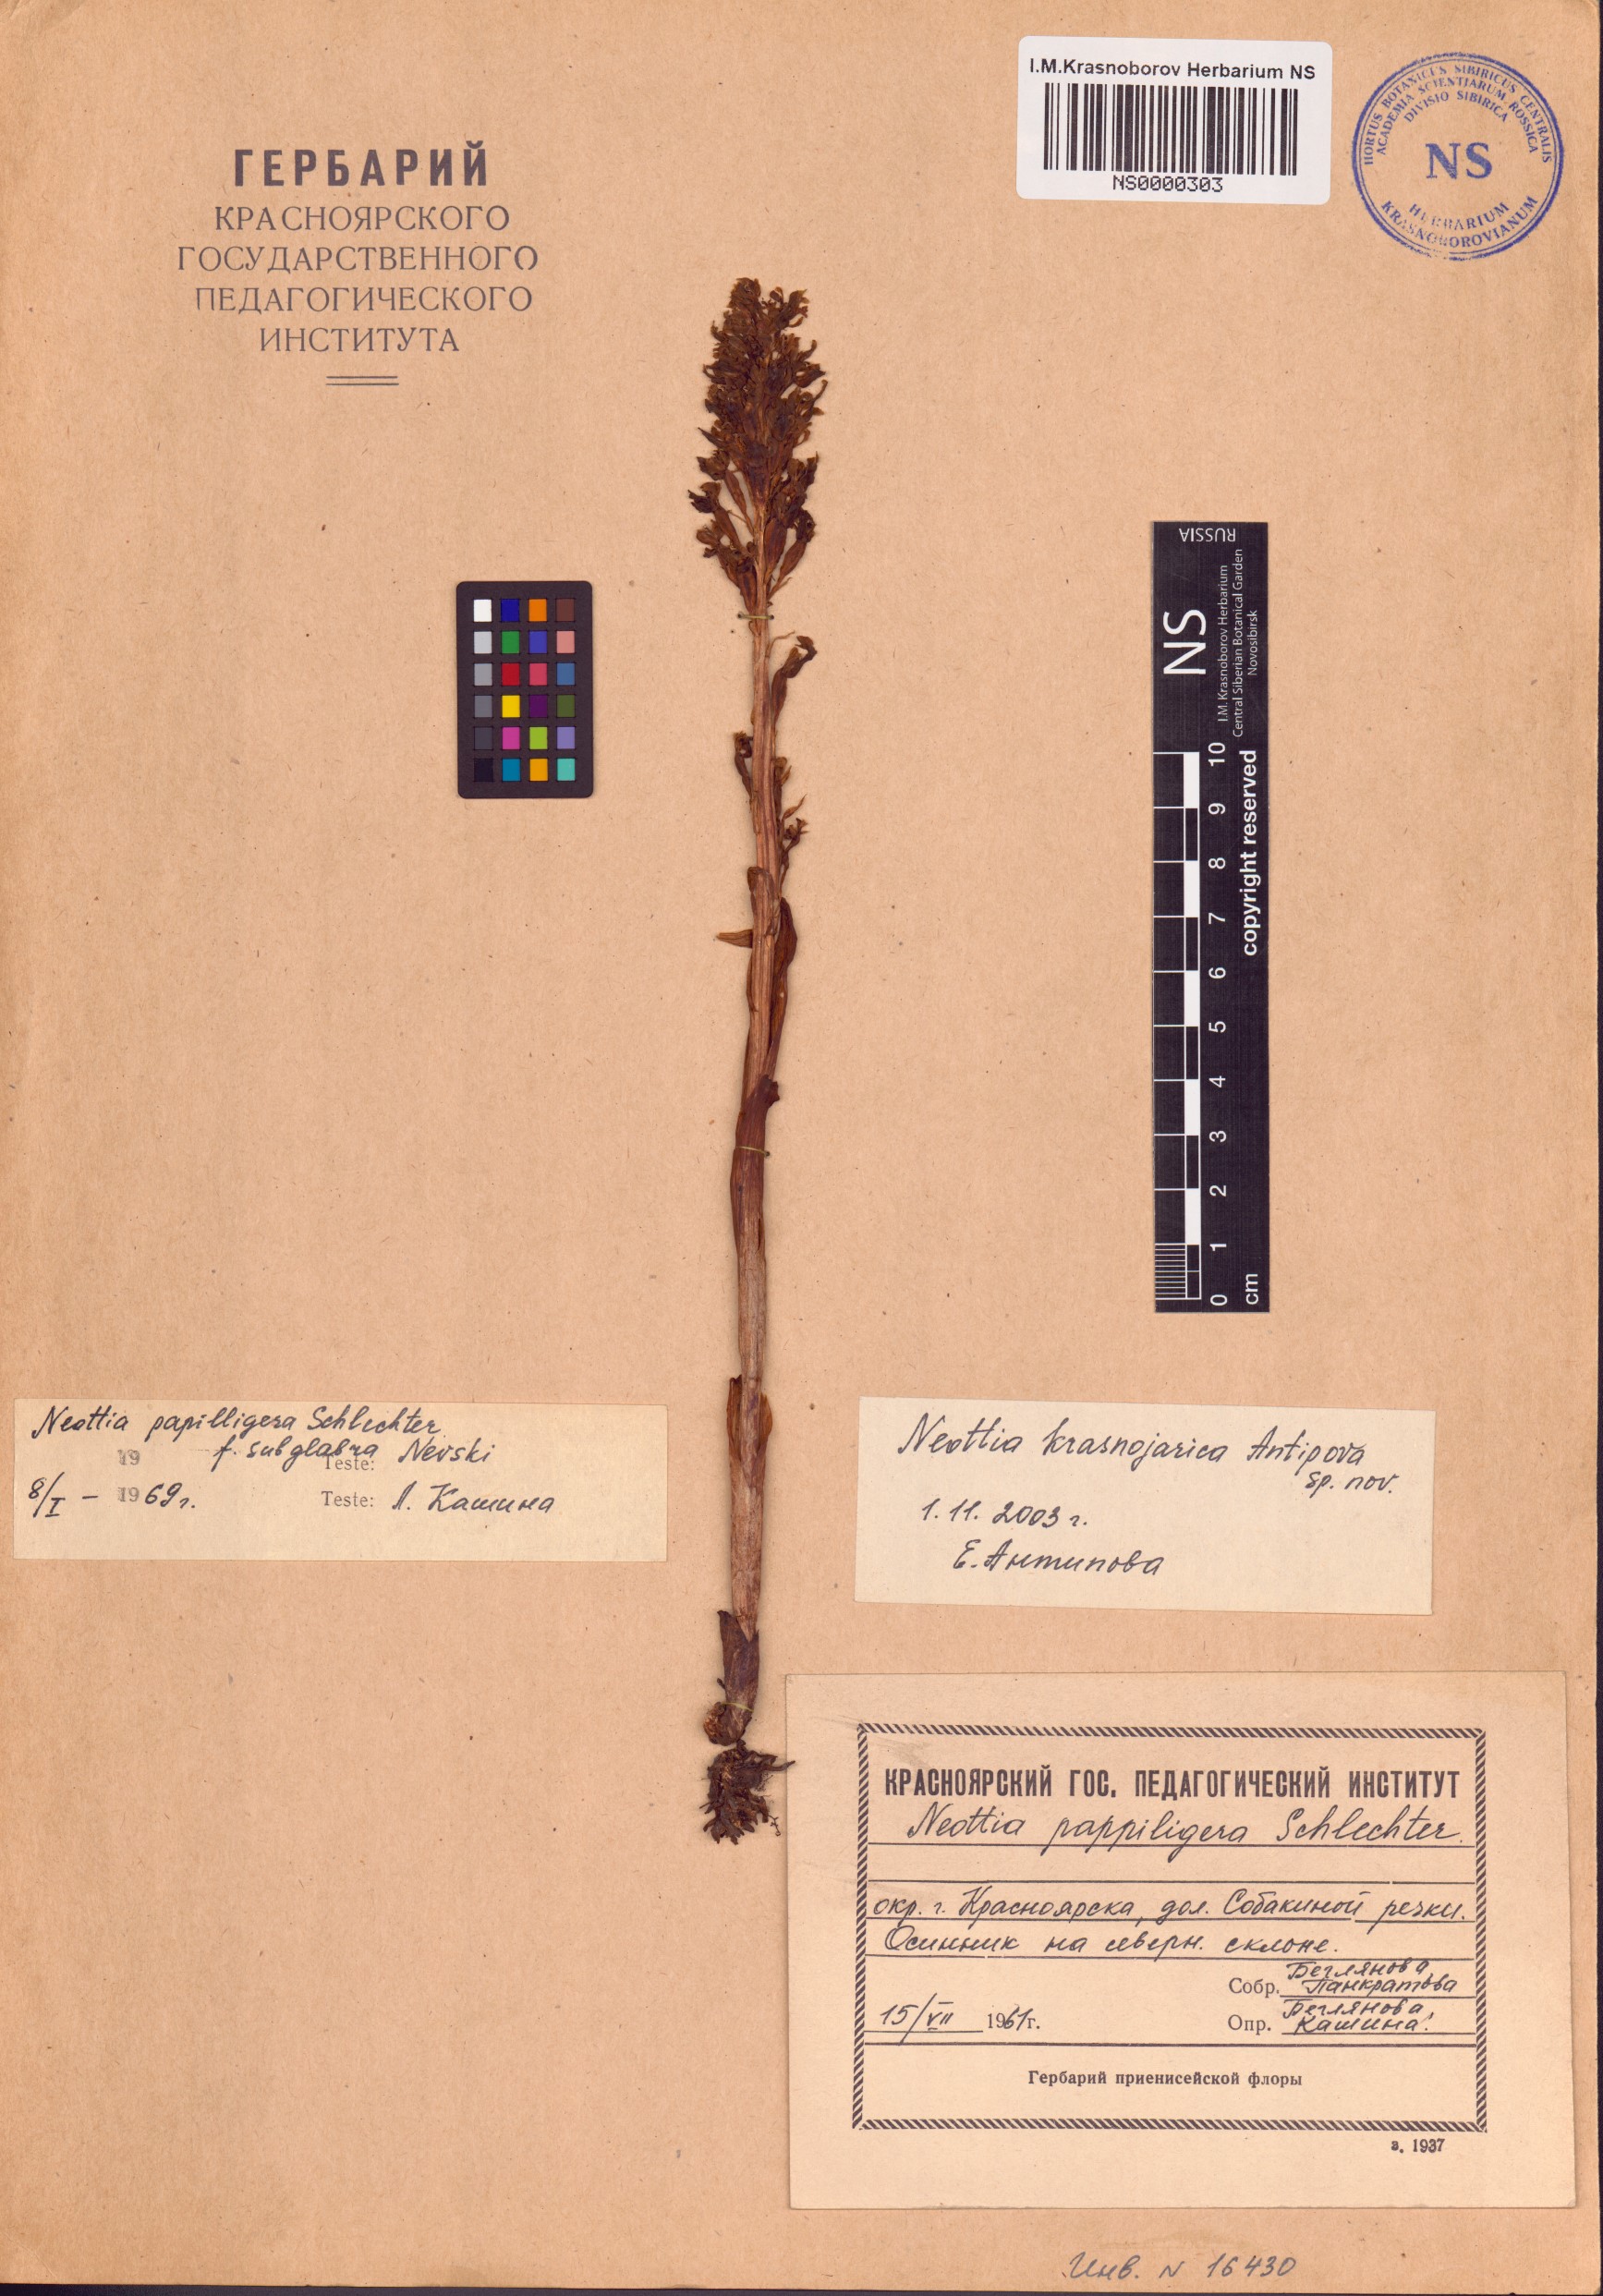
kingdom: Plantae
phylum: Tracheophyta
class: Liliopsida
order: Asparagales
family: Orchidaceae
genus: Neottia
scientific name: Neottia
